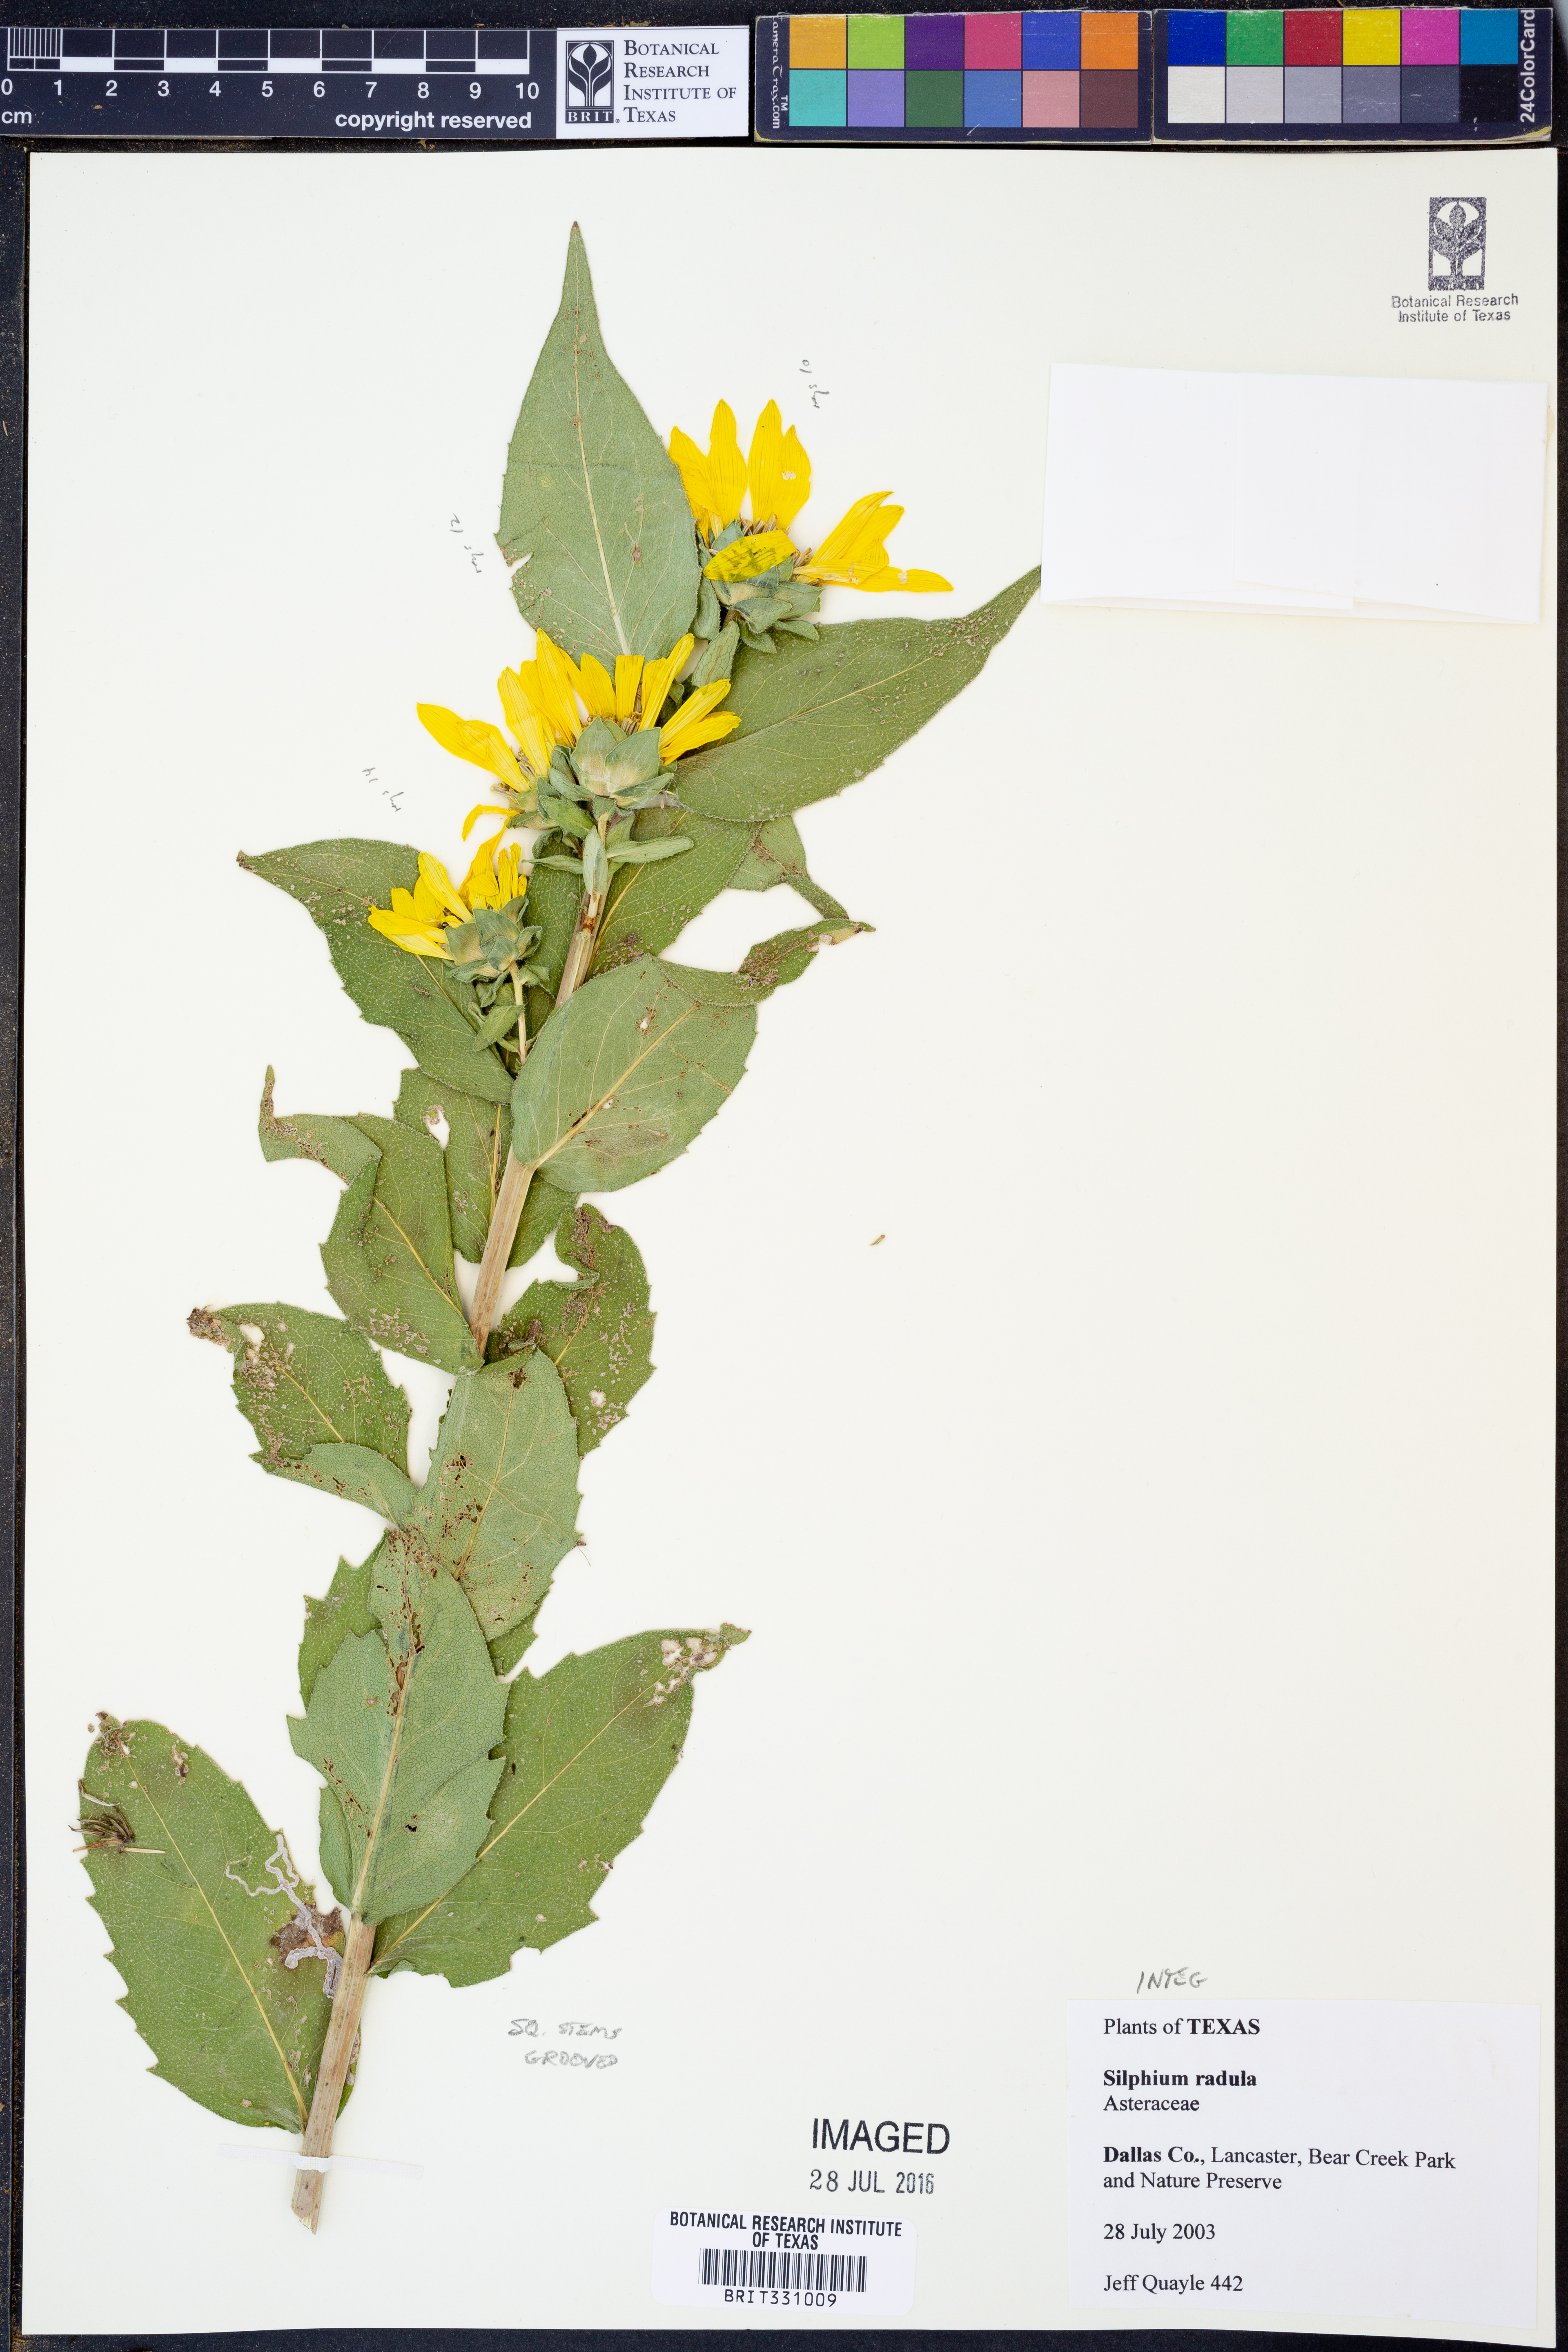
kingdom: Plantae
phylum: Tracheophyta
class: Magnoliopsida
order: Asterales
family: Asteraceae
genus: Silphium
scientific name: Silphium radula
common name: Roughleaf rosinweed
